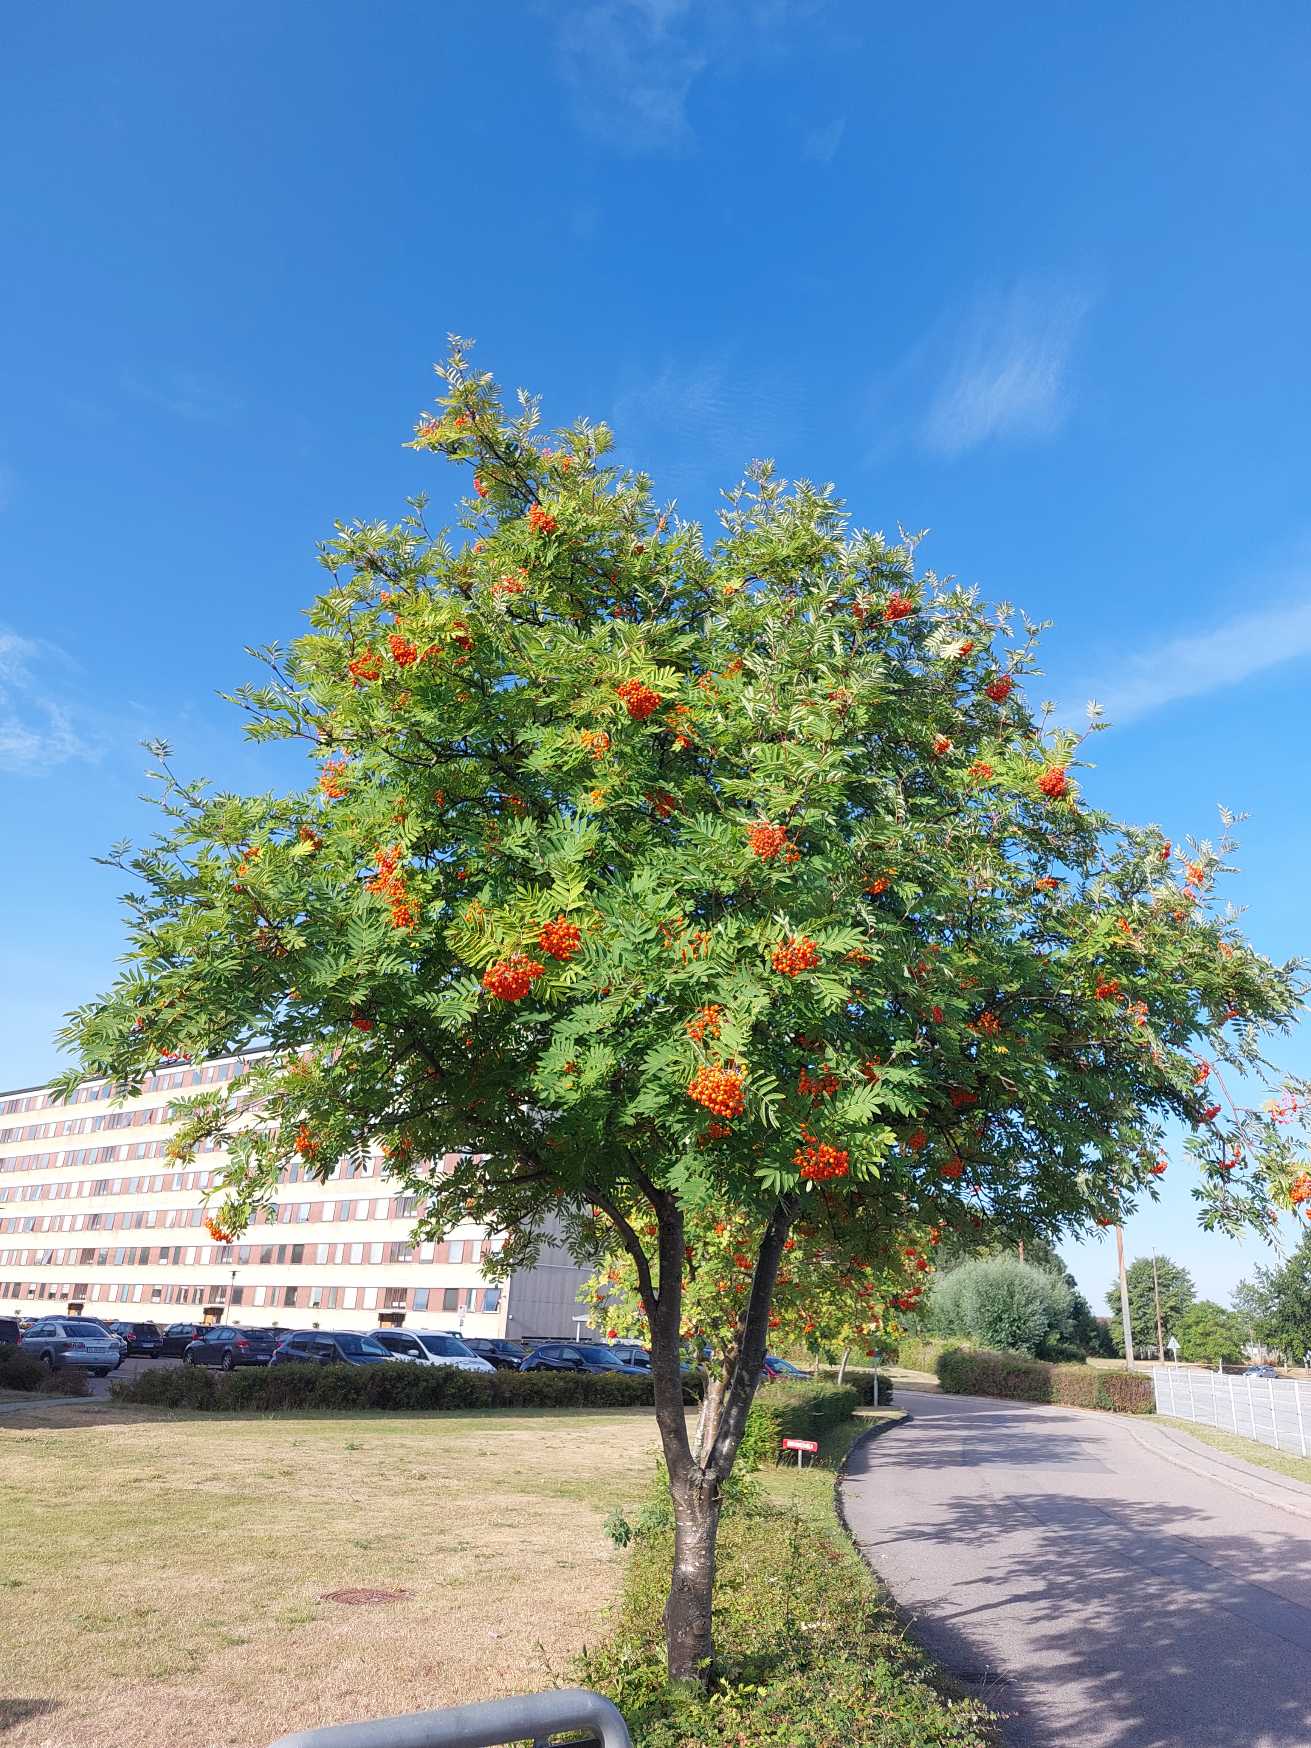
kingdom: Plantae
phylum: Tracheophyta
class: Magnoliopsida
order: Rosales
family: Rosaceae
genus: Sorbus
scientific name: Sorbus aucuparia
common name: Almindelig røn
